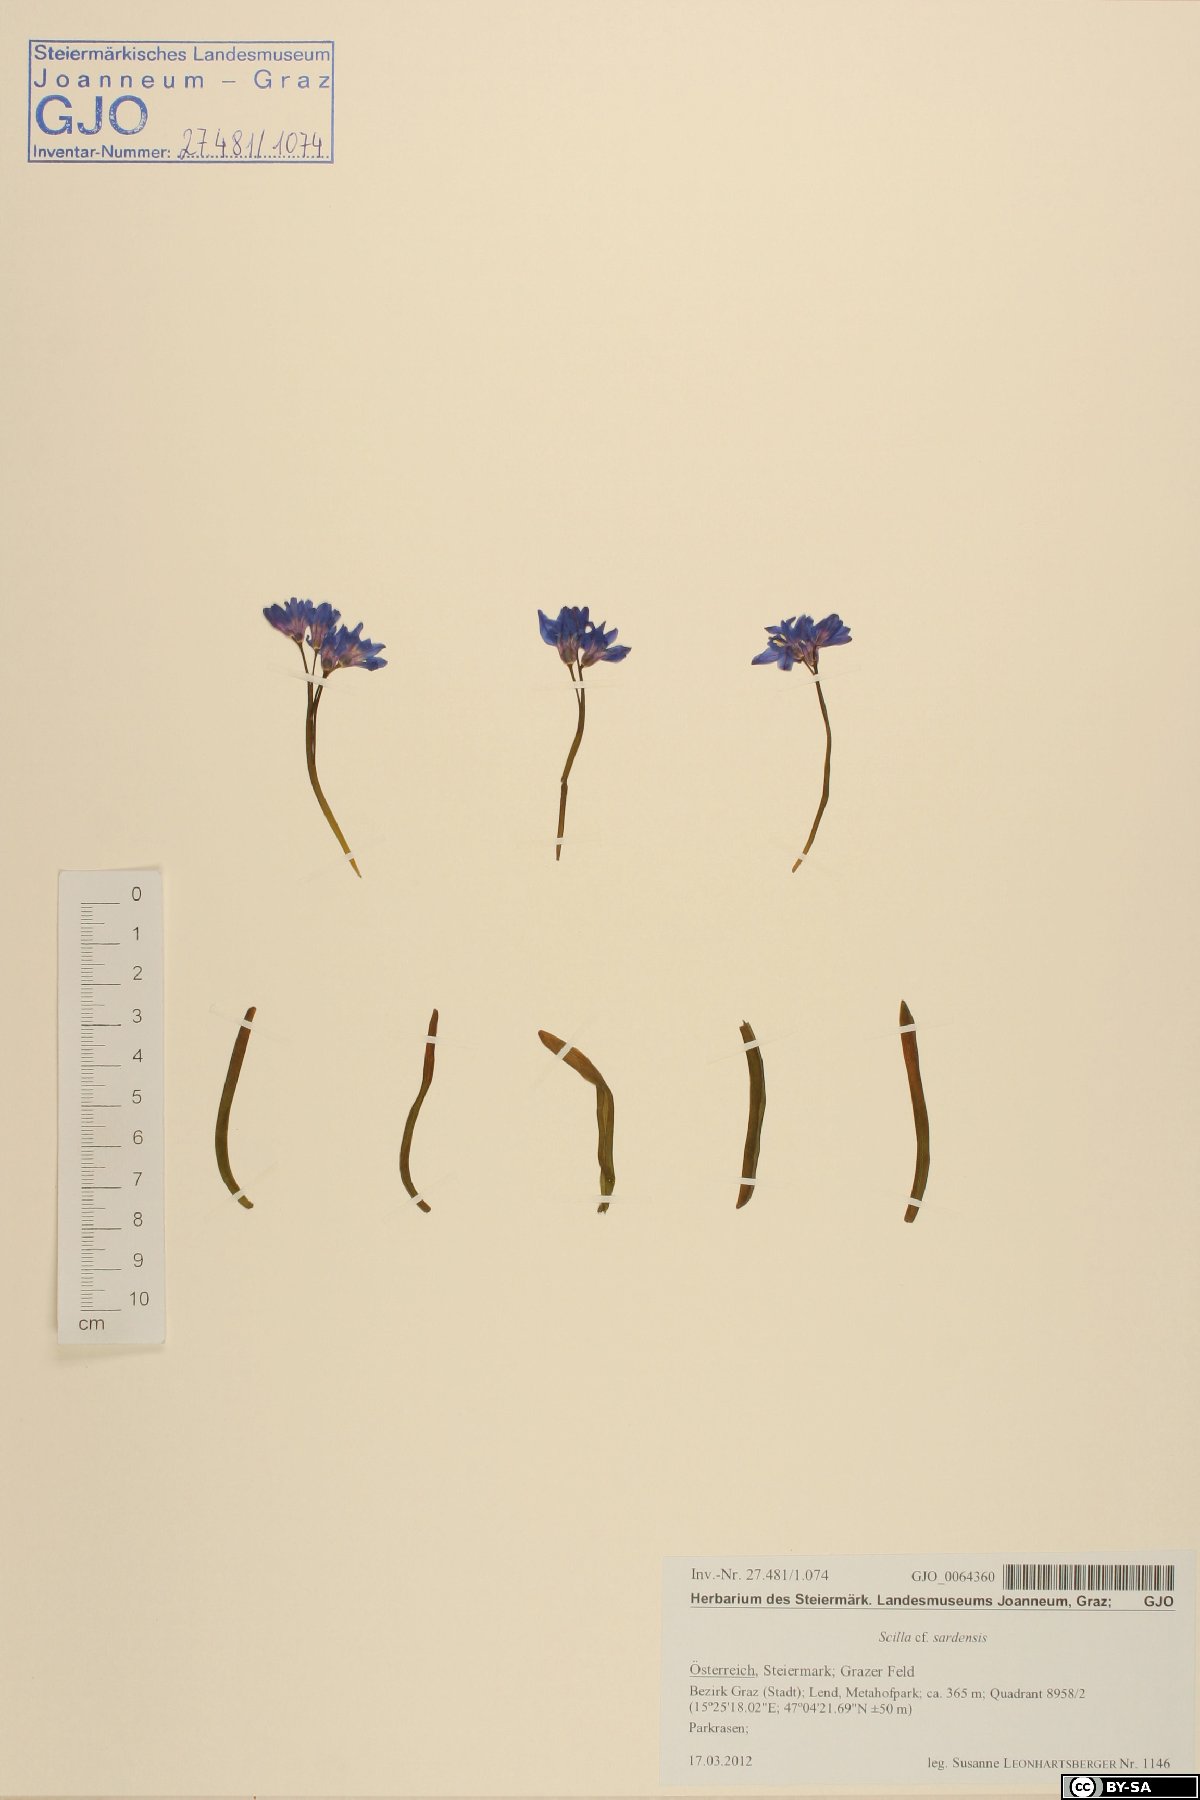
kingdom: Plantae
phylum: Tracheophyta
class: Liliopsida
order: Asparagales
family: Asparagaceae
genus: Scilla
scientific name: Scilla sardensis
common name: Lesser glory-of-the-snow
